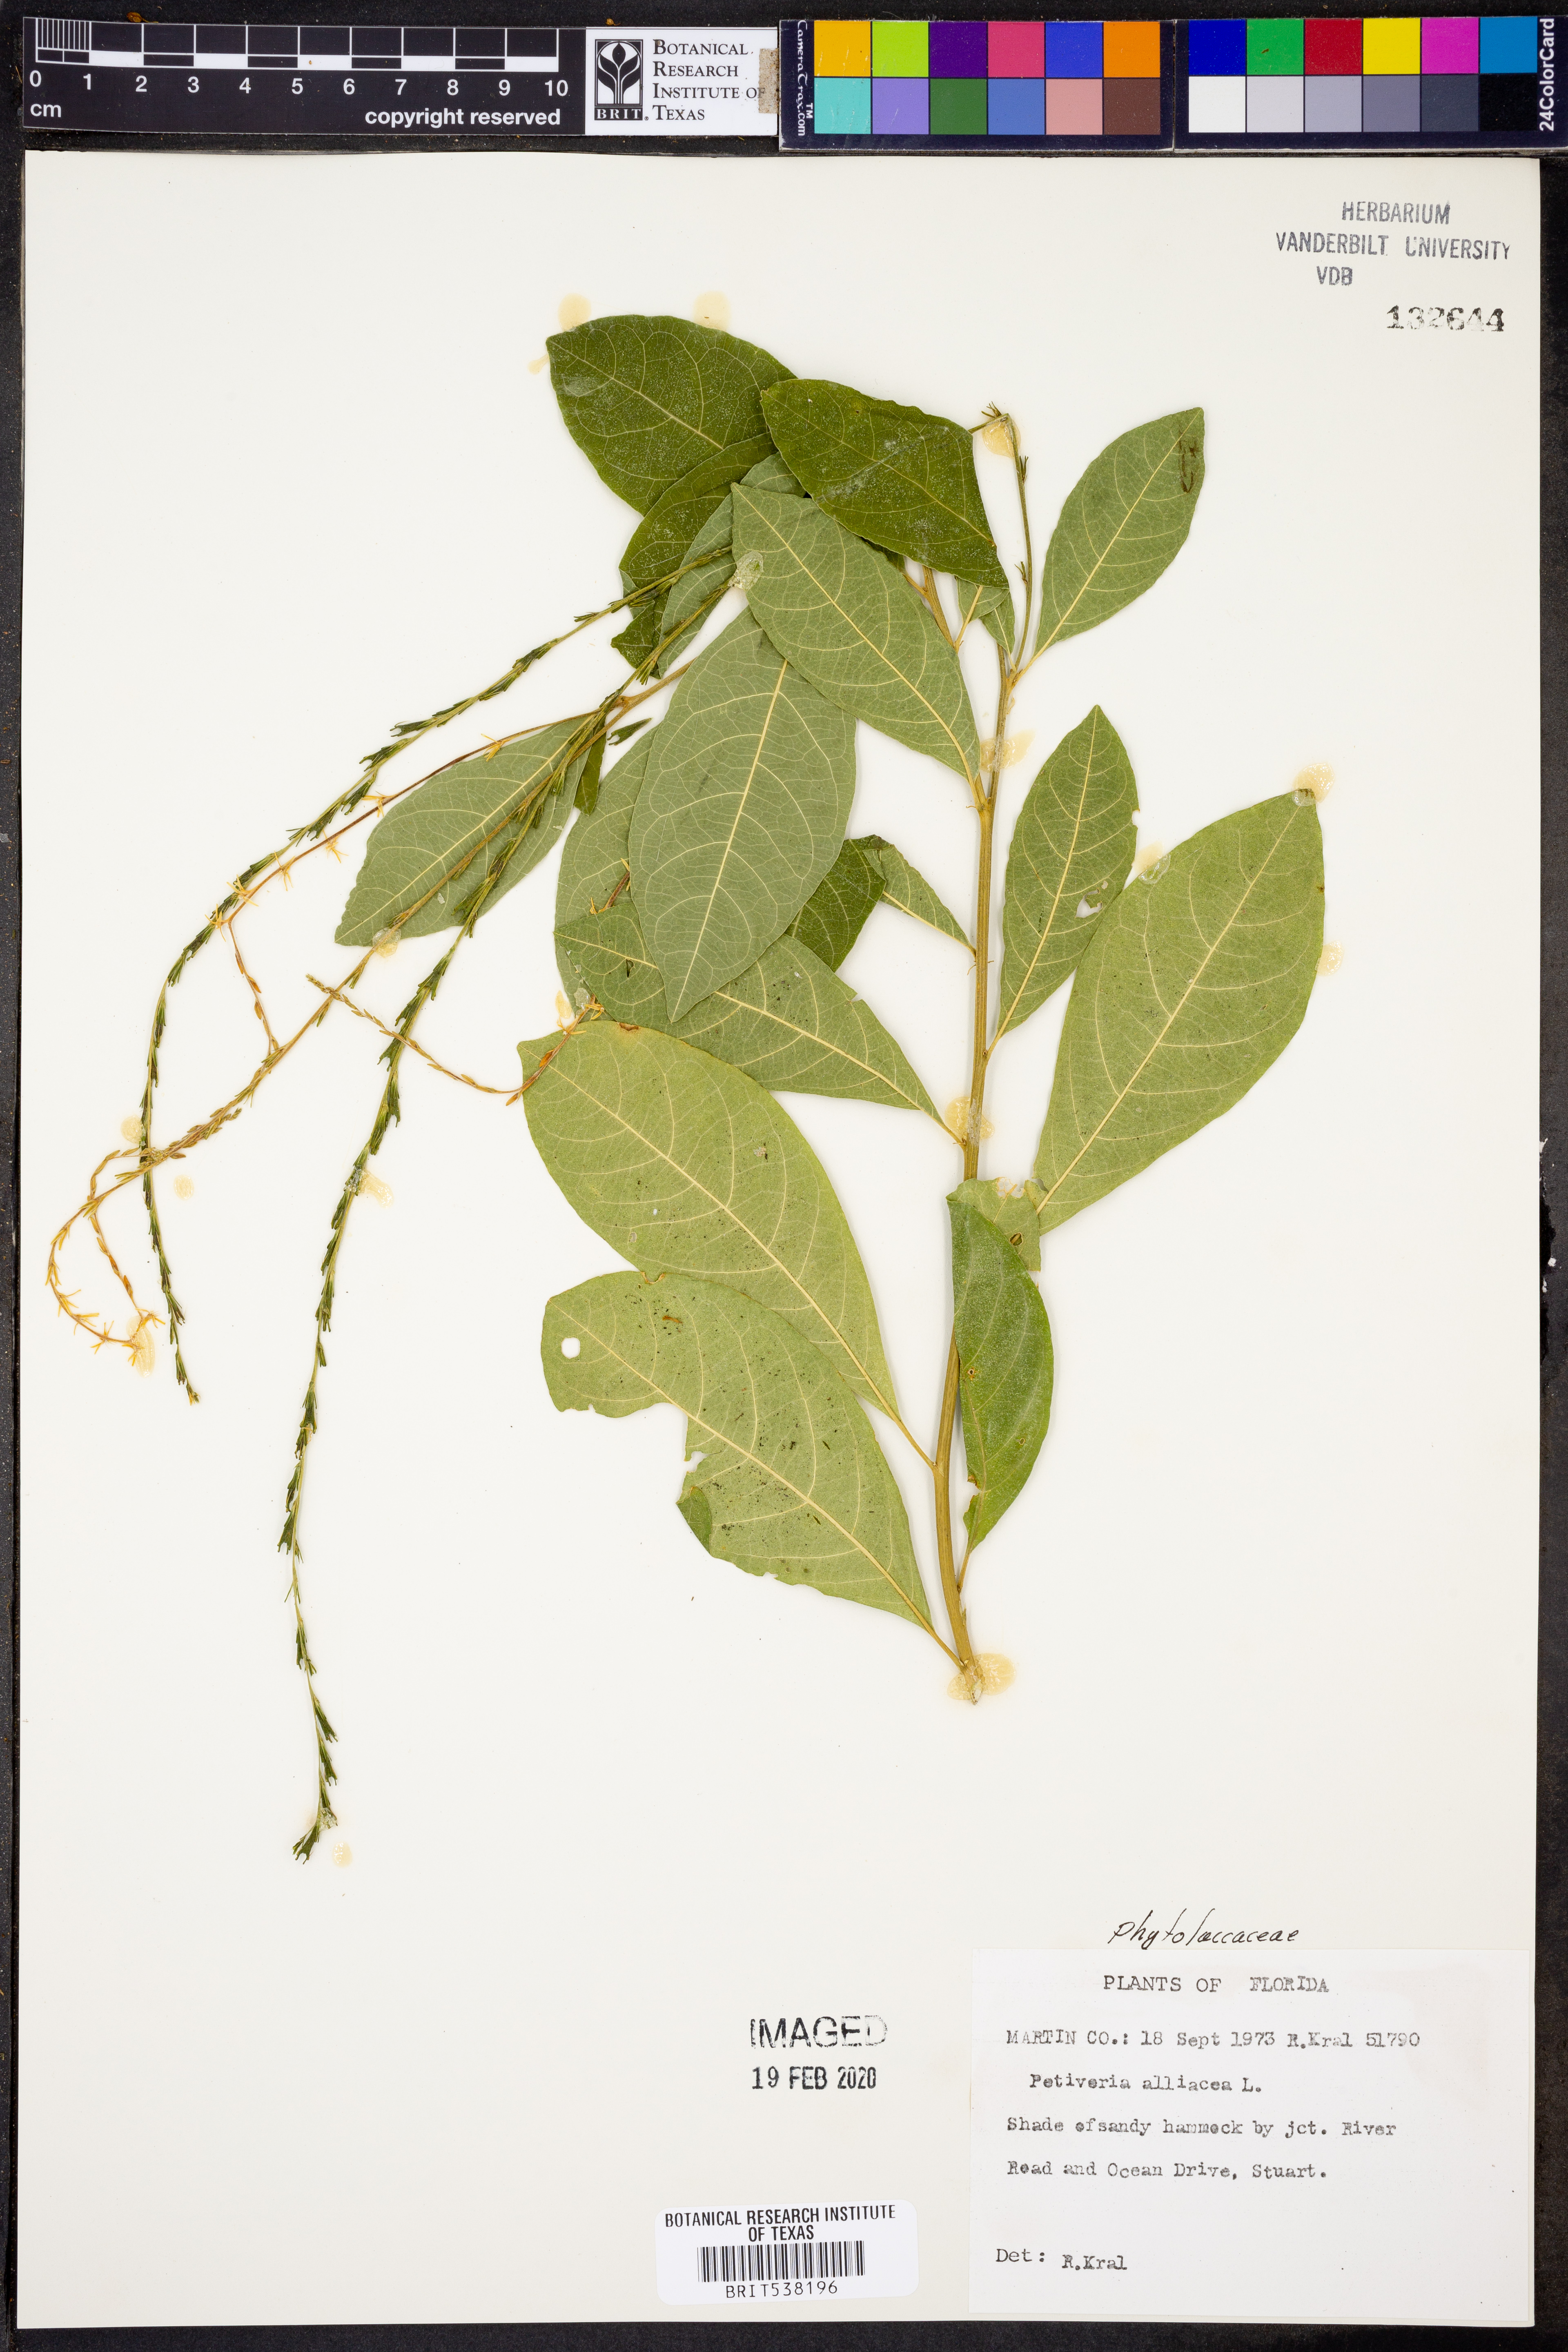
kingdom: Plantae
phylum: Tracheophyta
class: Magnoliopsida
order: Caryophyllales
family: Phytolaccaceae
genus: Petiveria
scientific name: Petiveria alliacea
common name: Garlicweed
